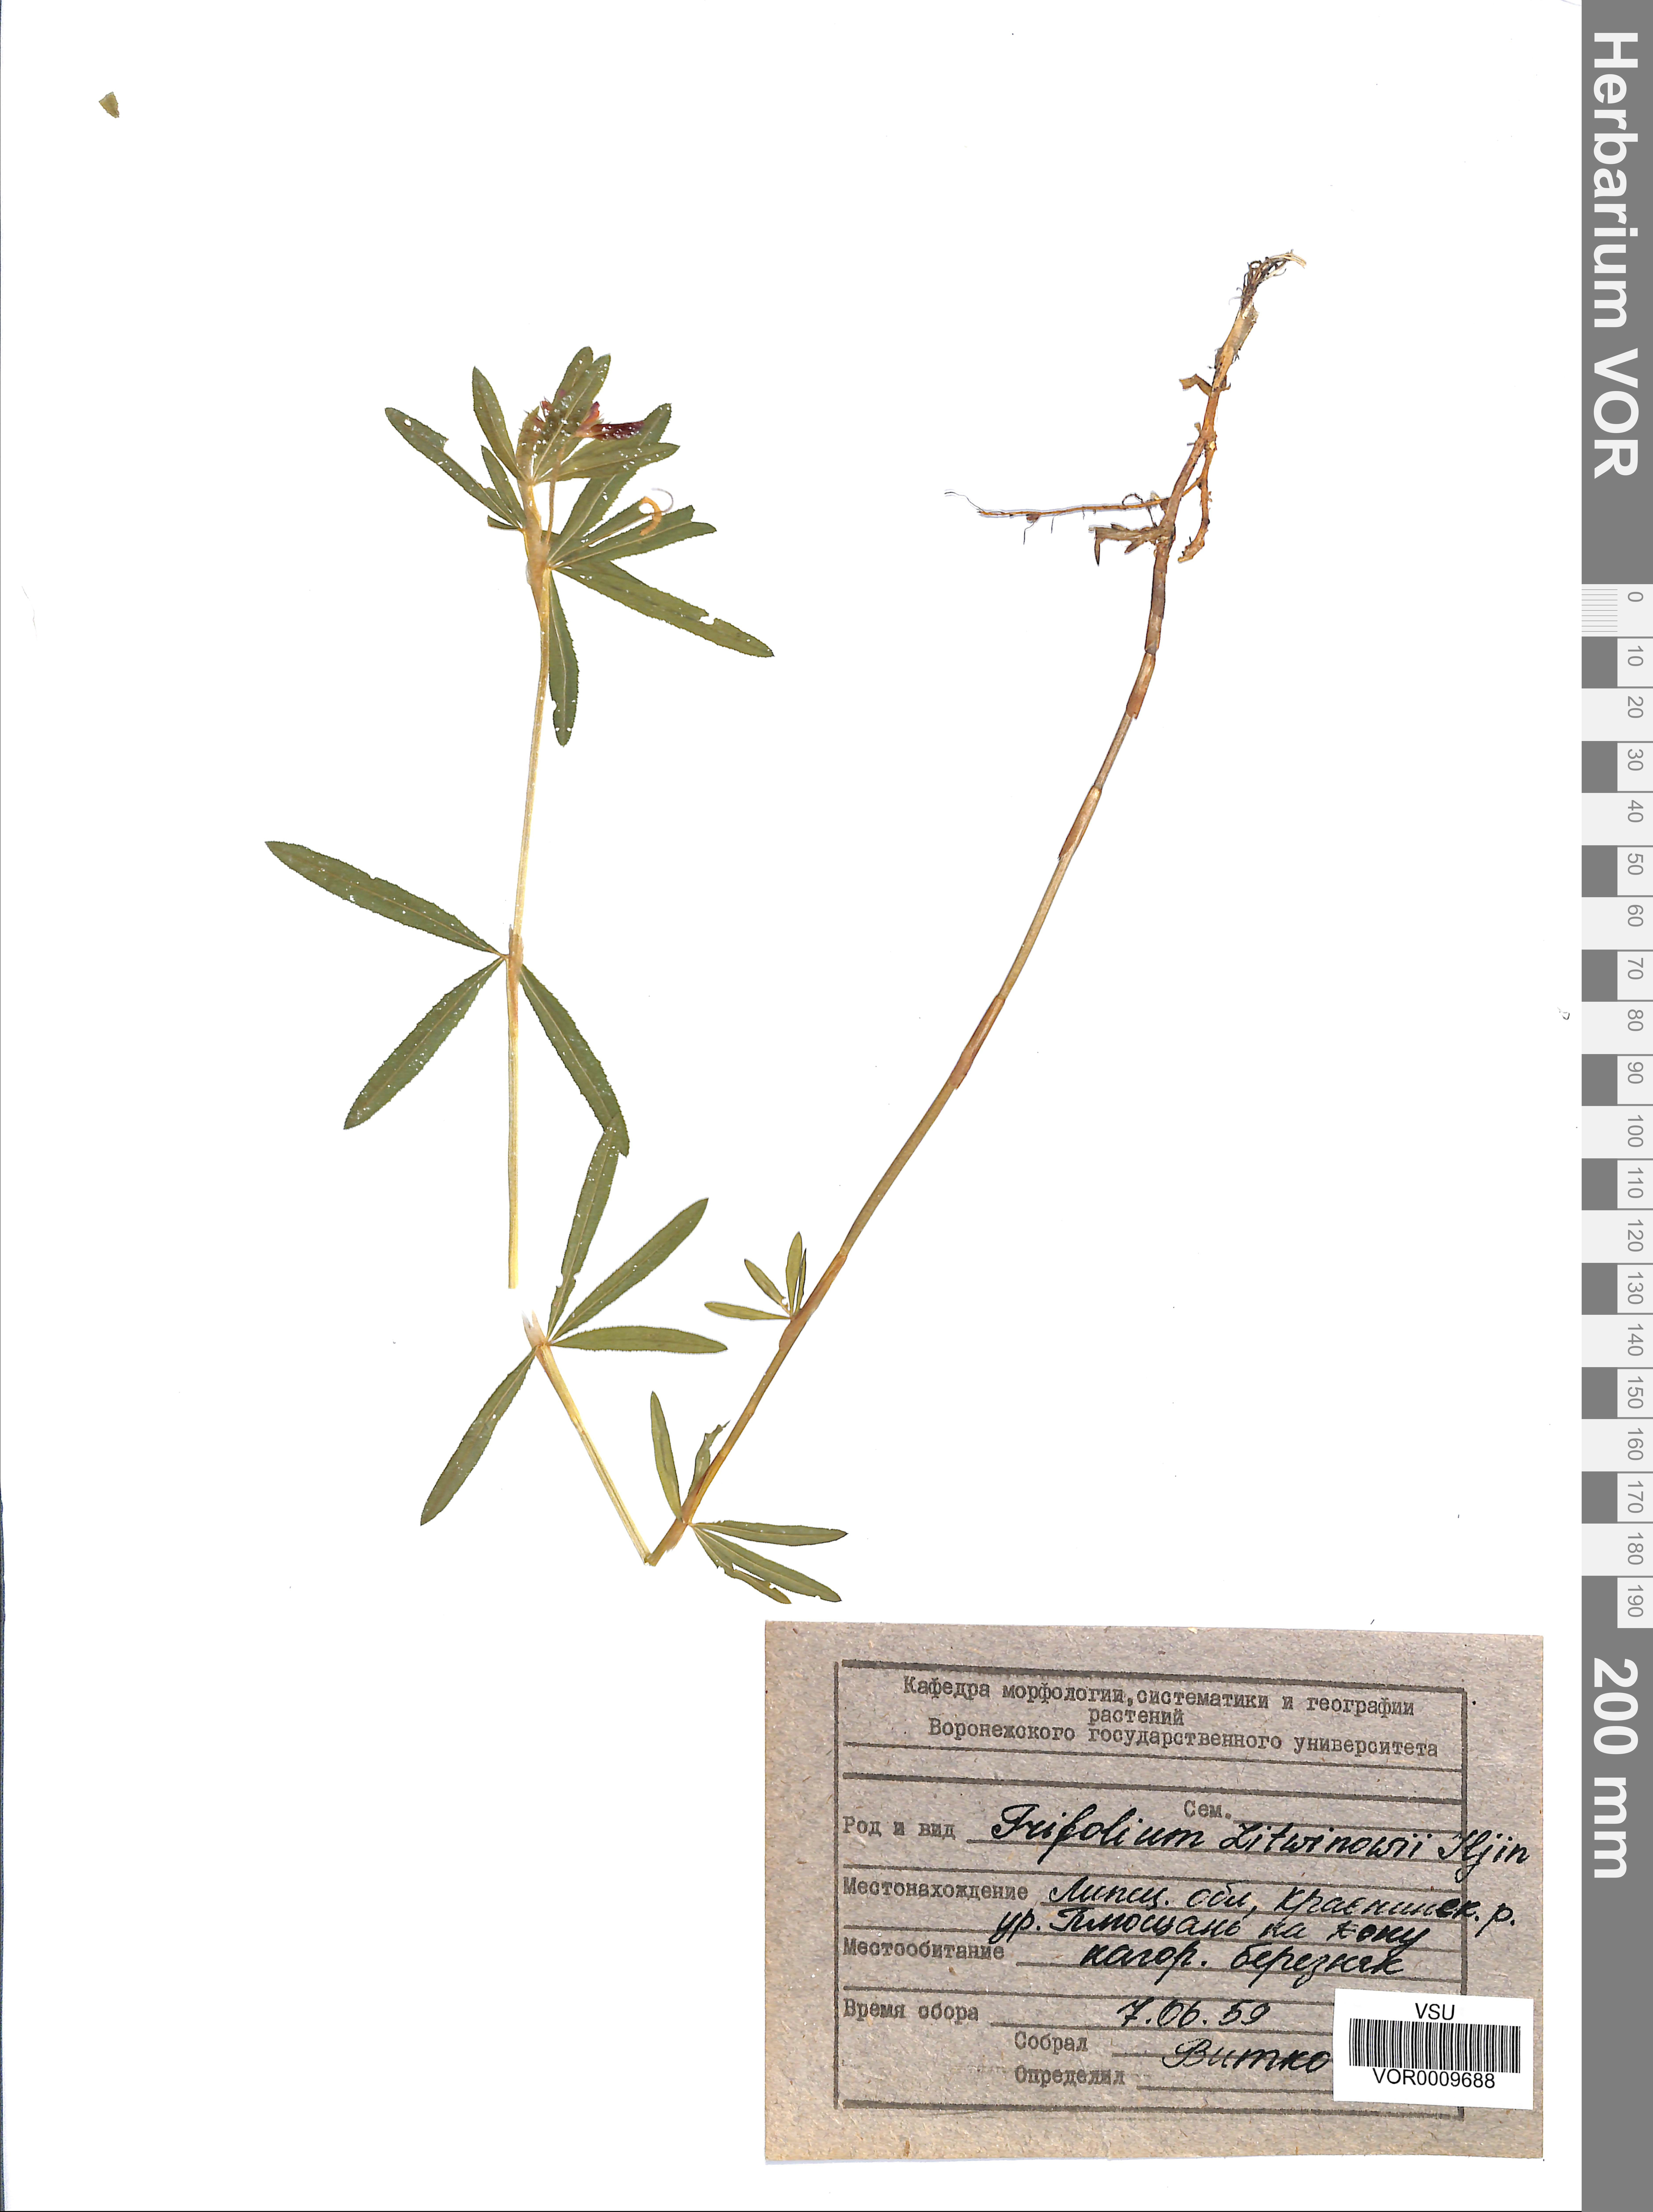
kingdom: Plantae
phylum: Tracheophyta
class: Magnoliopsida
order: Fabales
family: Fabaceae
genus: Trifolium
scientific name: Trifolium lupinaster
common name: Lupine clover
